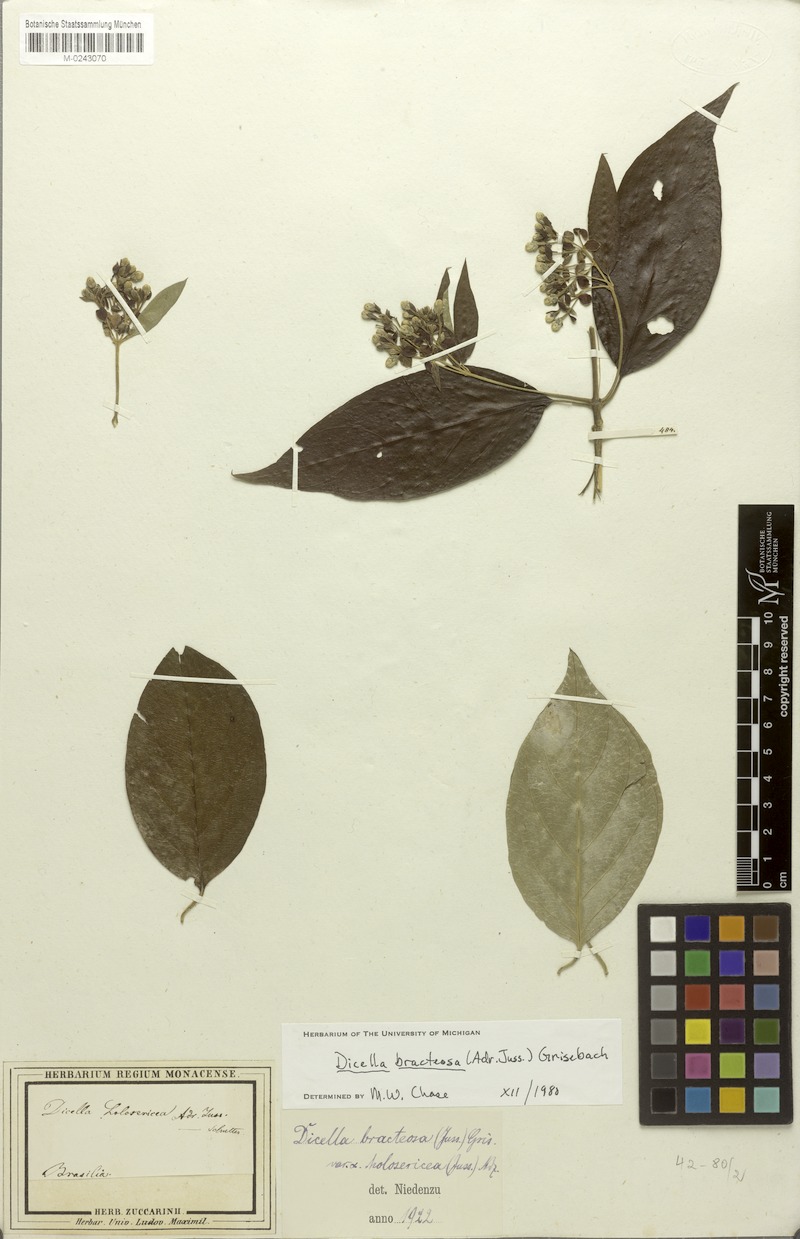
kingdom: Plantae
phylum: Tracheophyta
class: Magnoliopsida
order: Malpighiales
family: Malpighiaceae
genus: Dicella
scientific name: Dicella bracteosa
